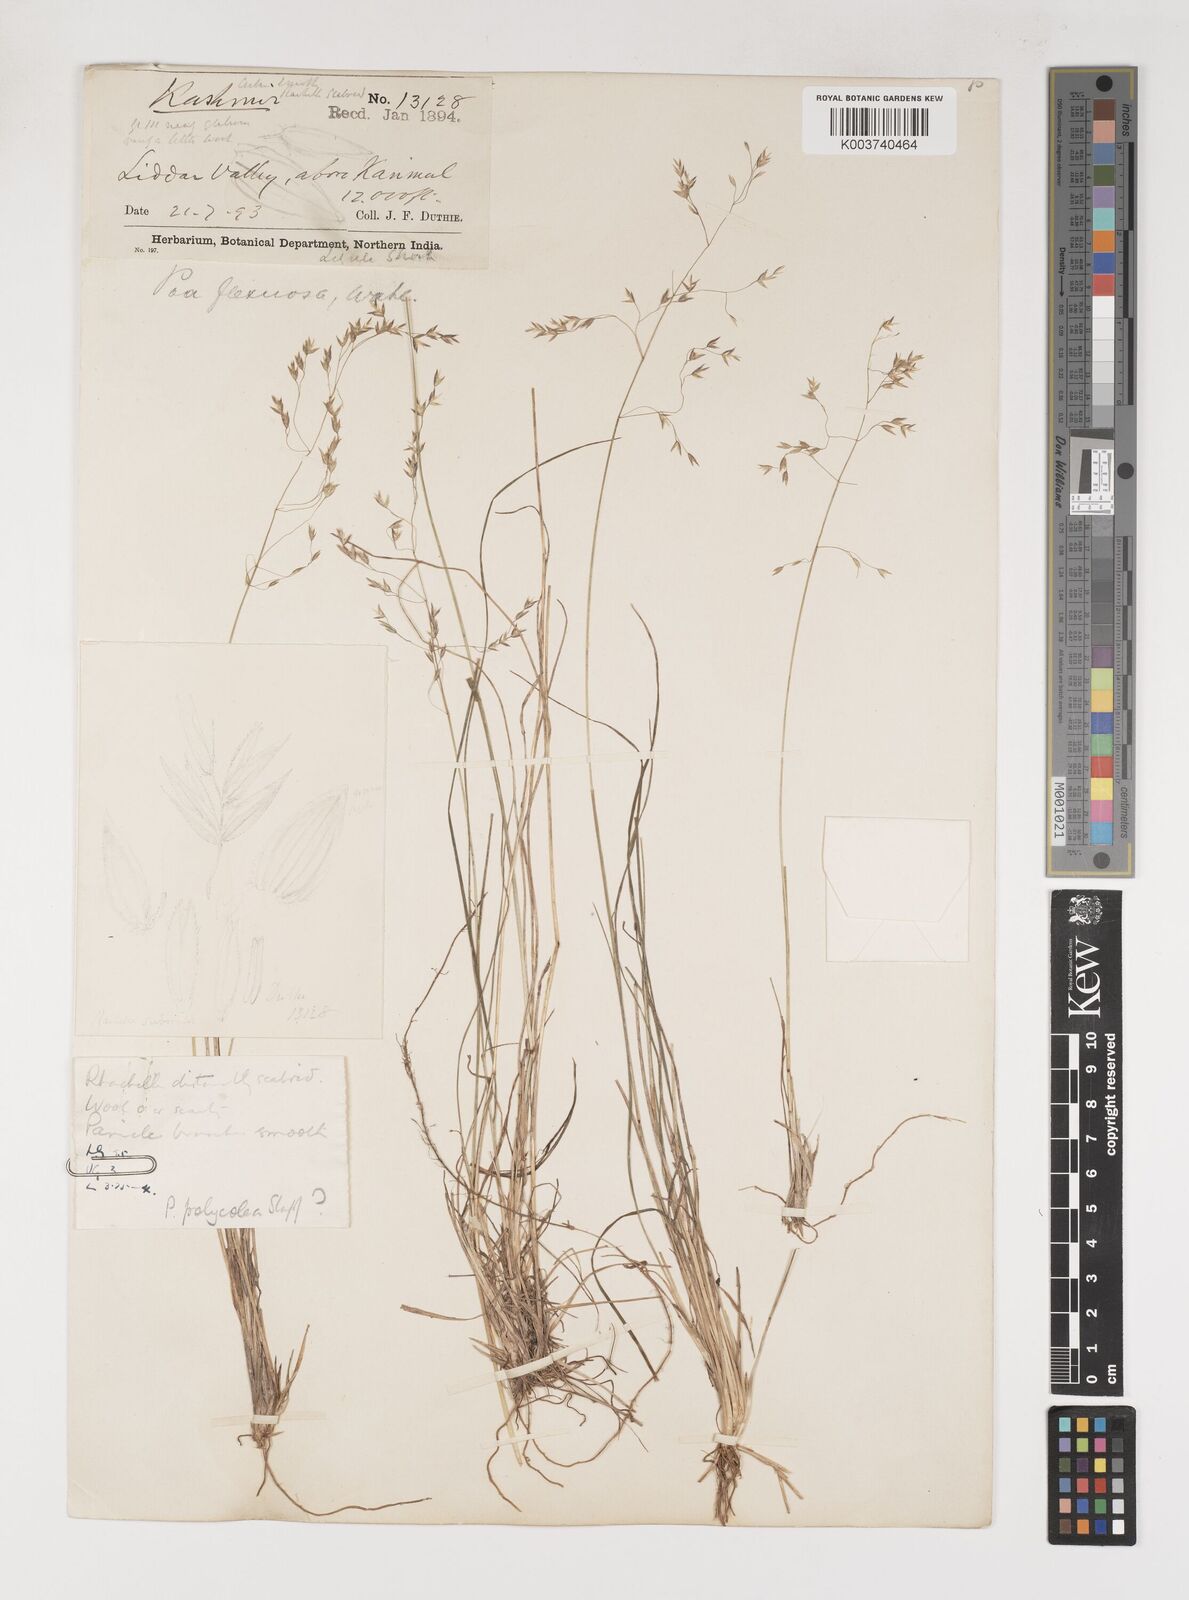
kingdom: Plantae
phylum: Tracheophyta
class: Liliopsida
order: Poales
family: Poaceae
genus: Poa
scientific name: Poa polycolea
